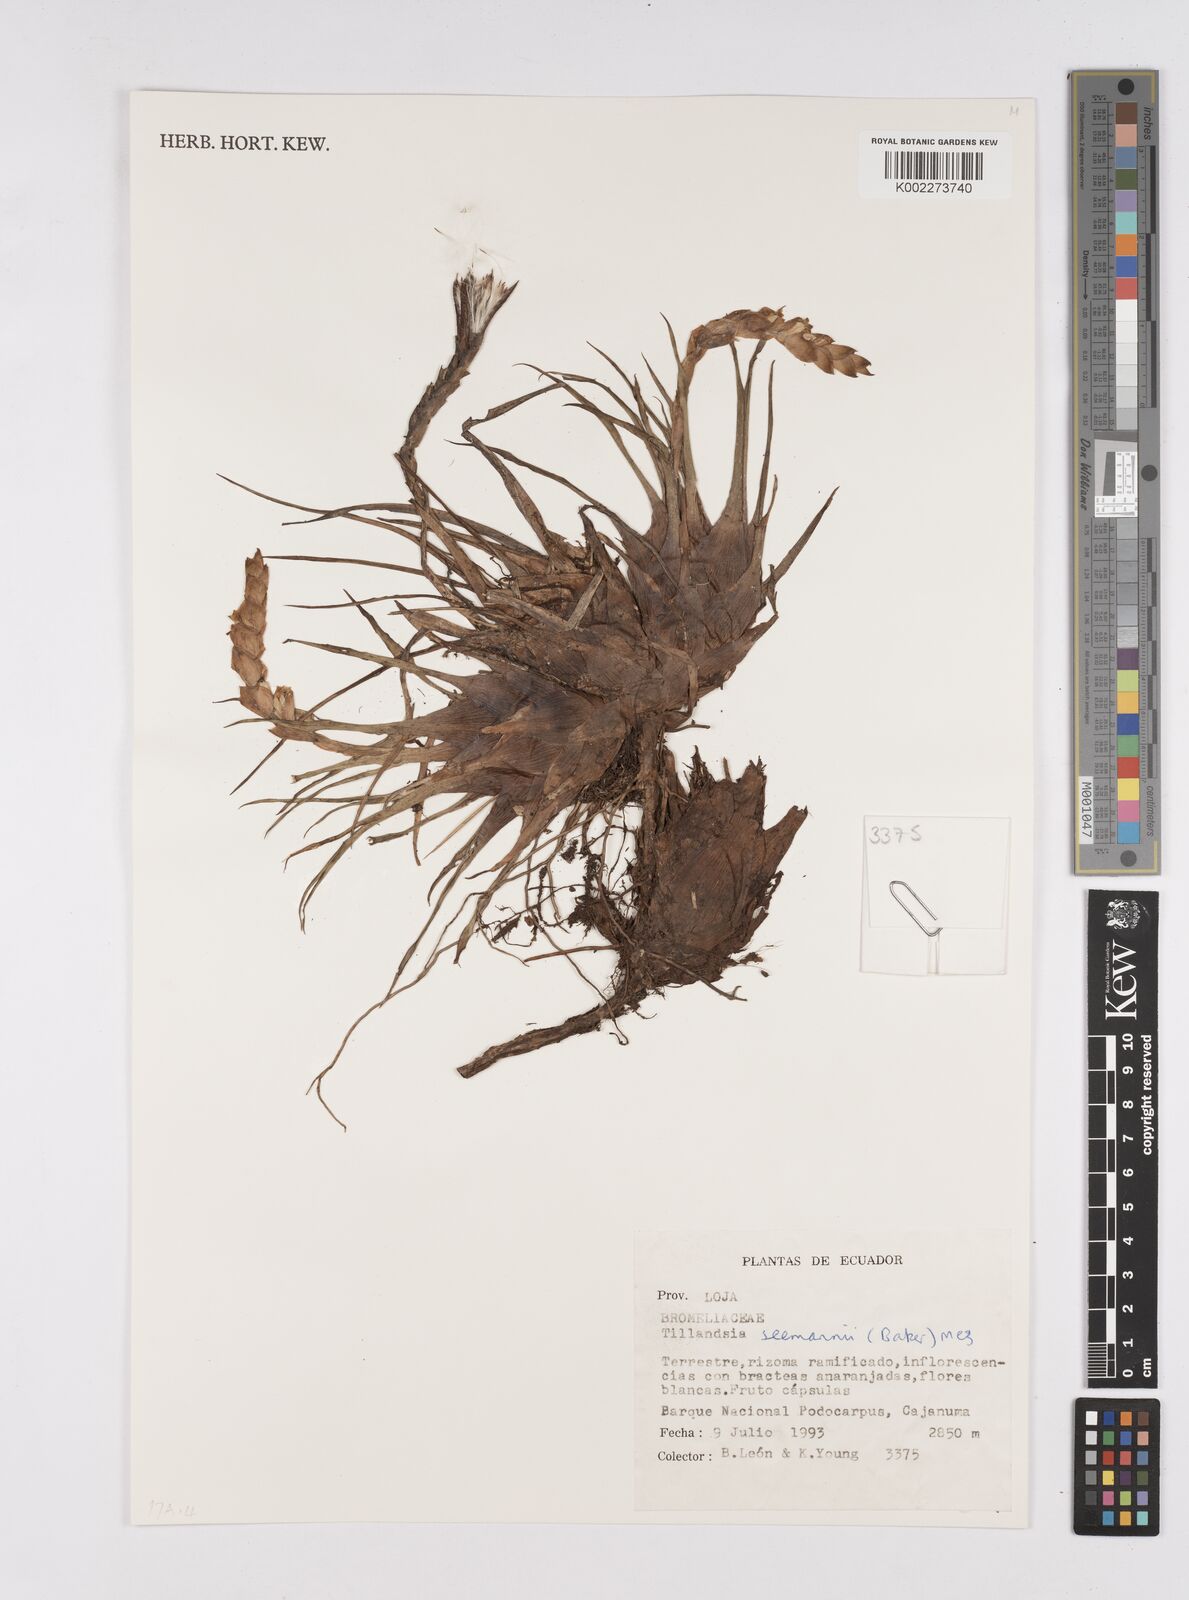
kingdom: Plantae
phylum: Tracheophyta
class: Liliopsida
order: Poales
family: Bromeliaceae
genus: Racinaea
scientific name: Racinaea seemannii
